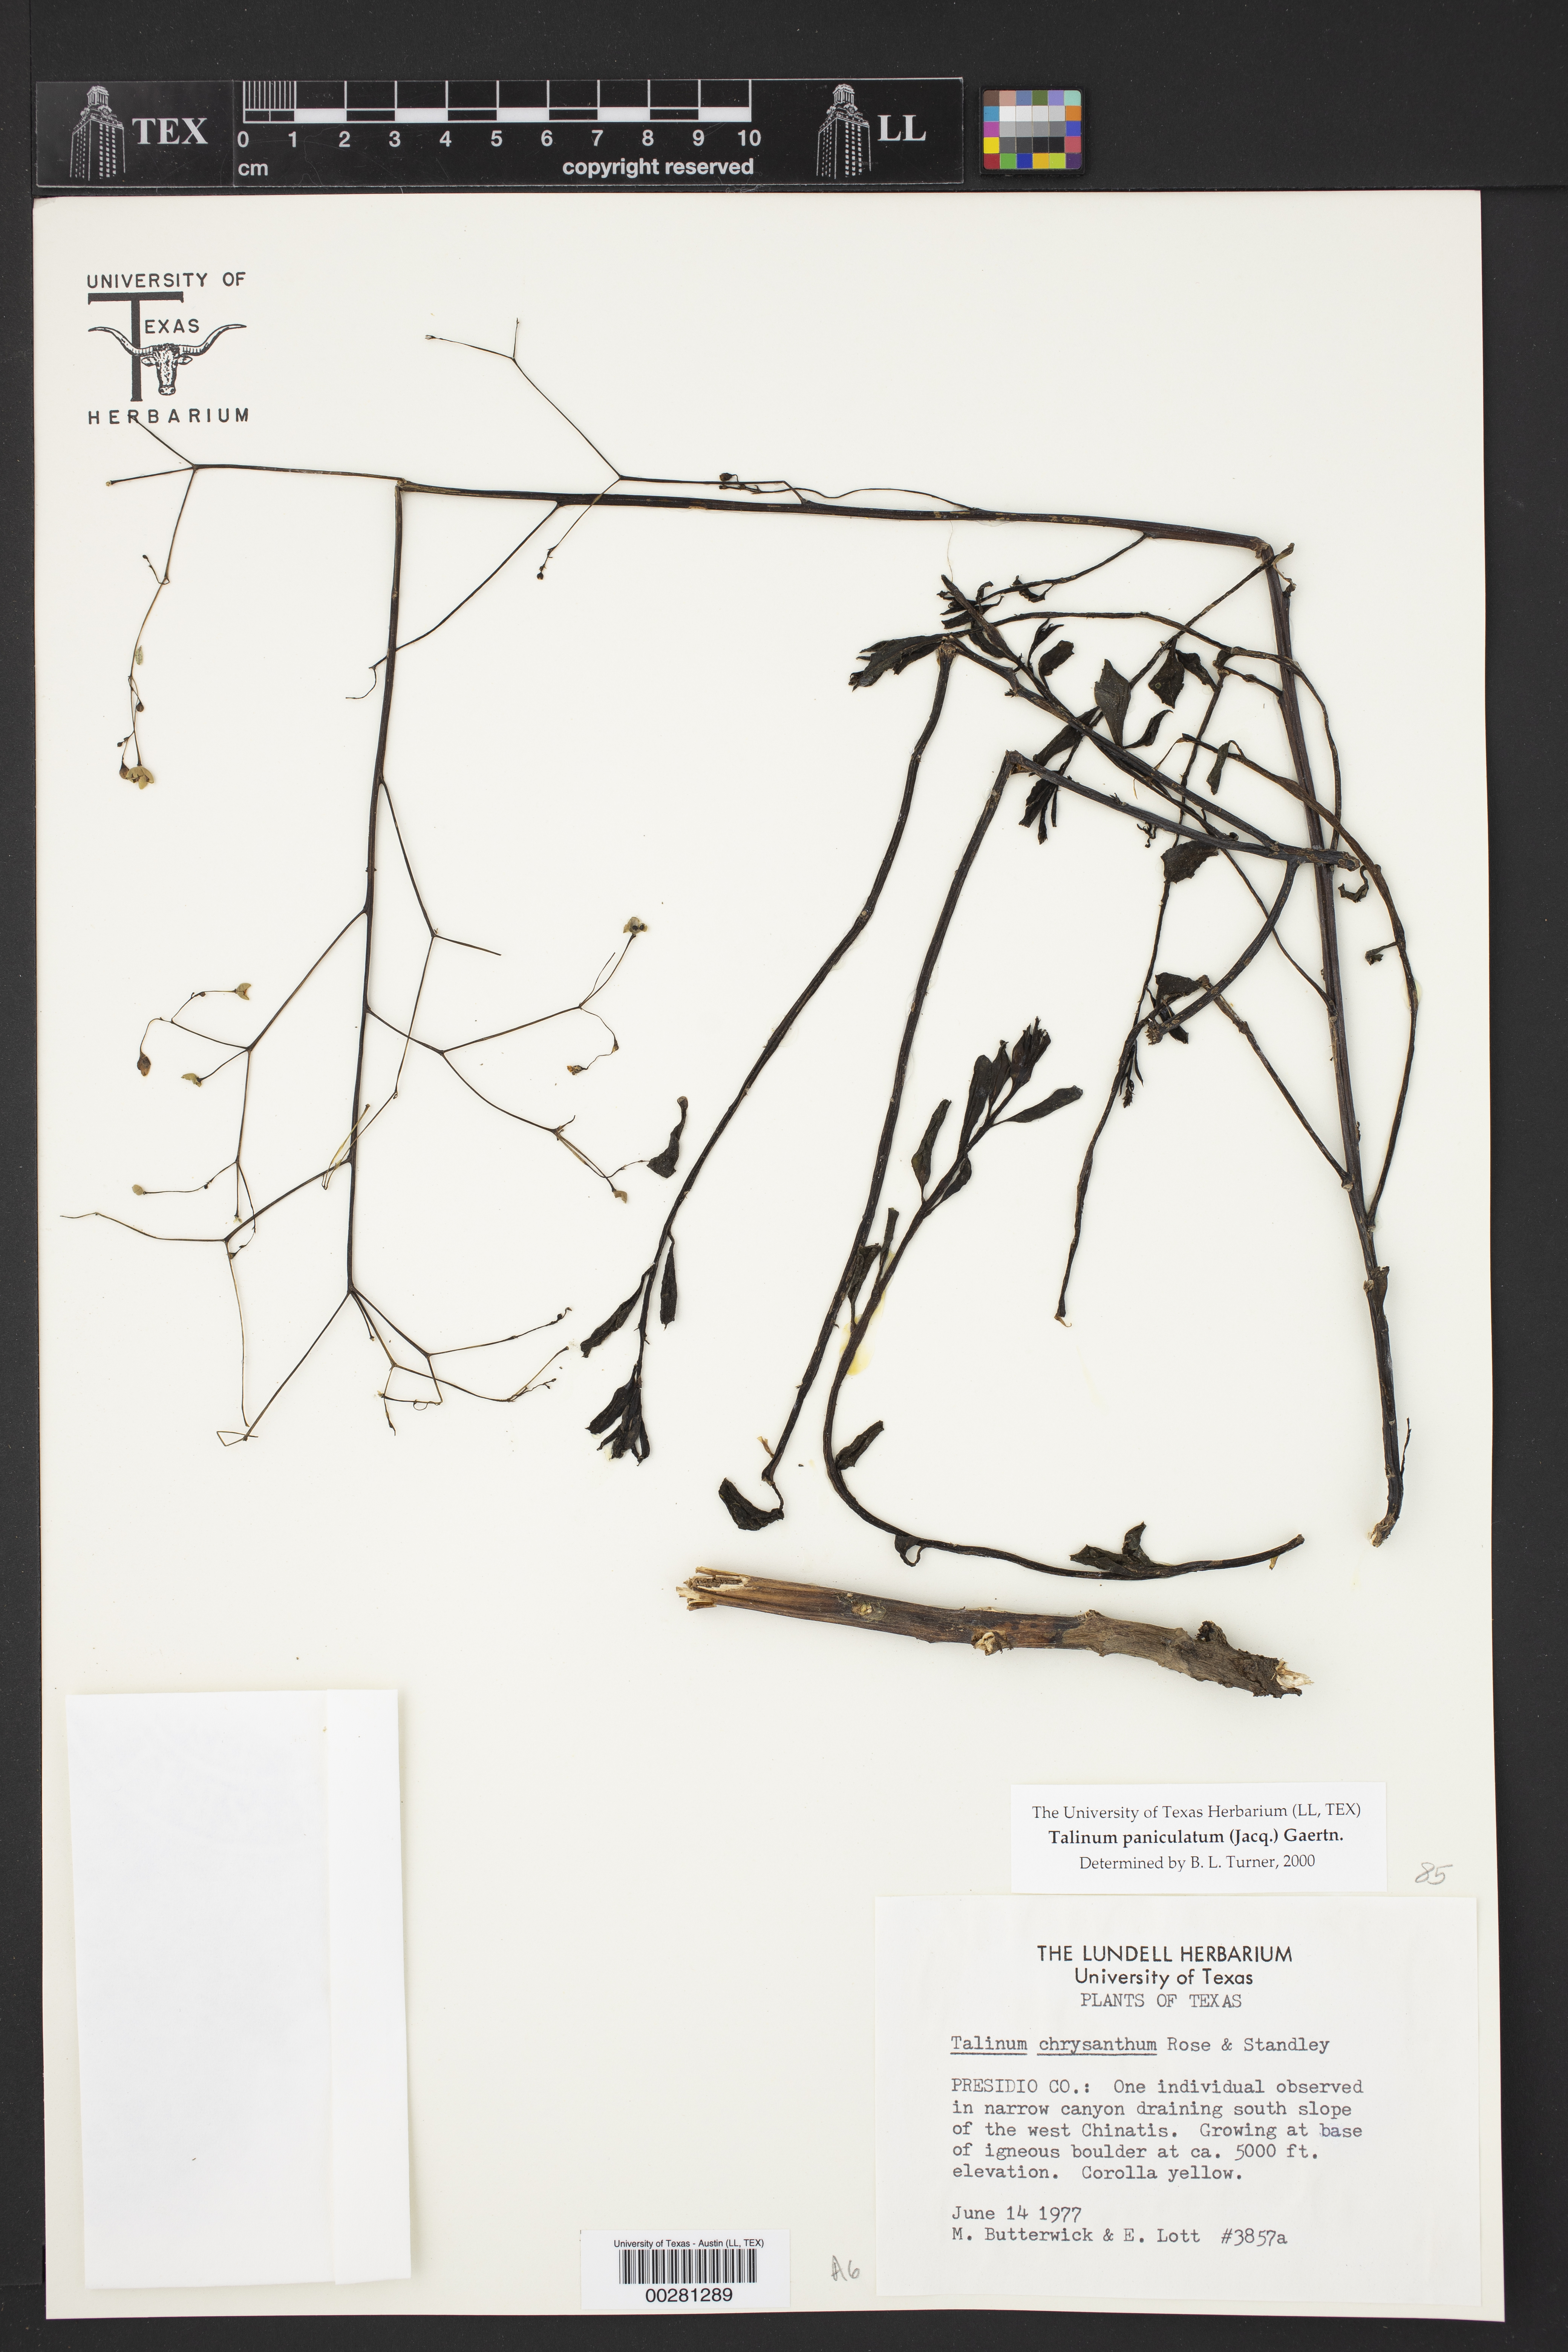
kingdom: Plantae
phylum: Tracheophyta
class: Magnoliopsida
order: Caryophyllales
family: Talinaceae
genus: Talinum
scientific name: Talinum paniculatum
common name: Jewels of opar
